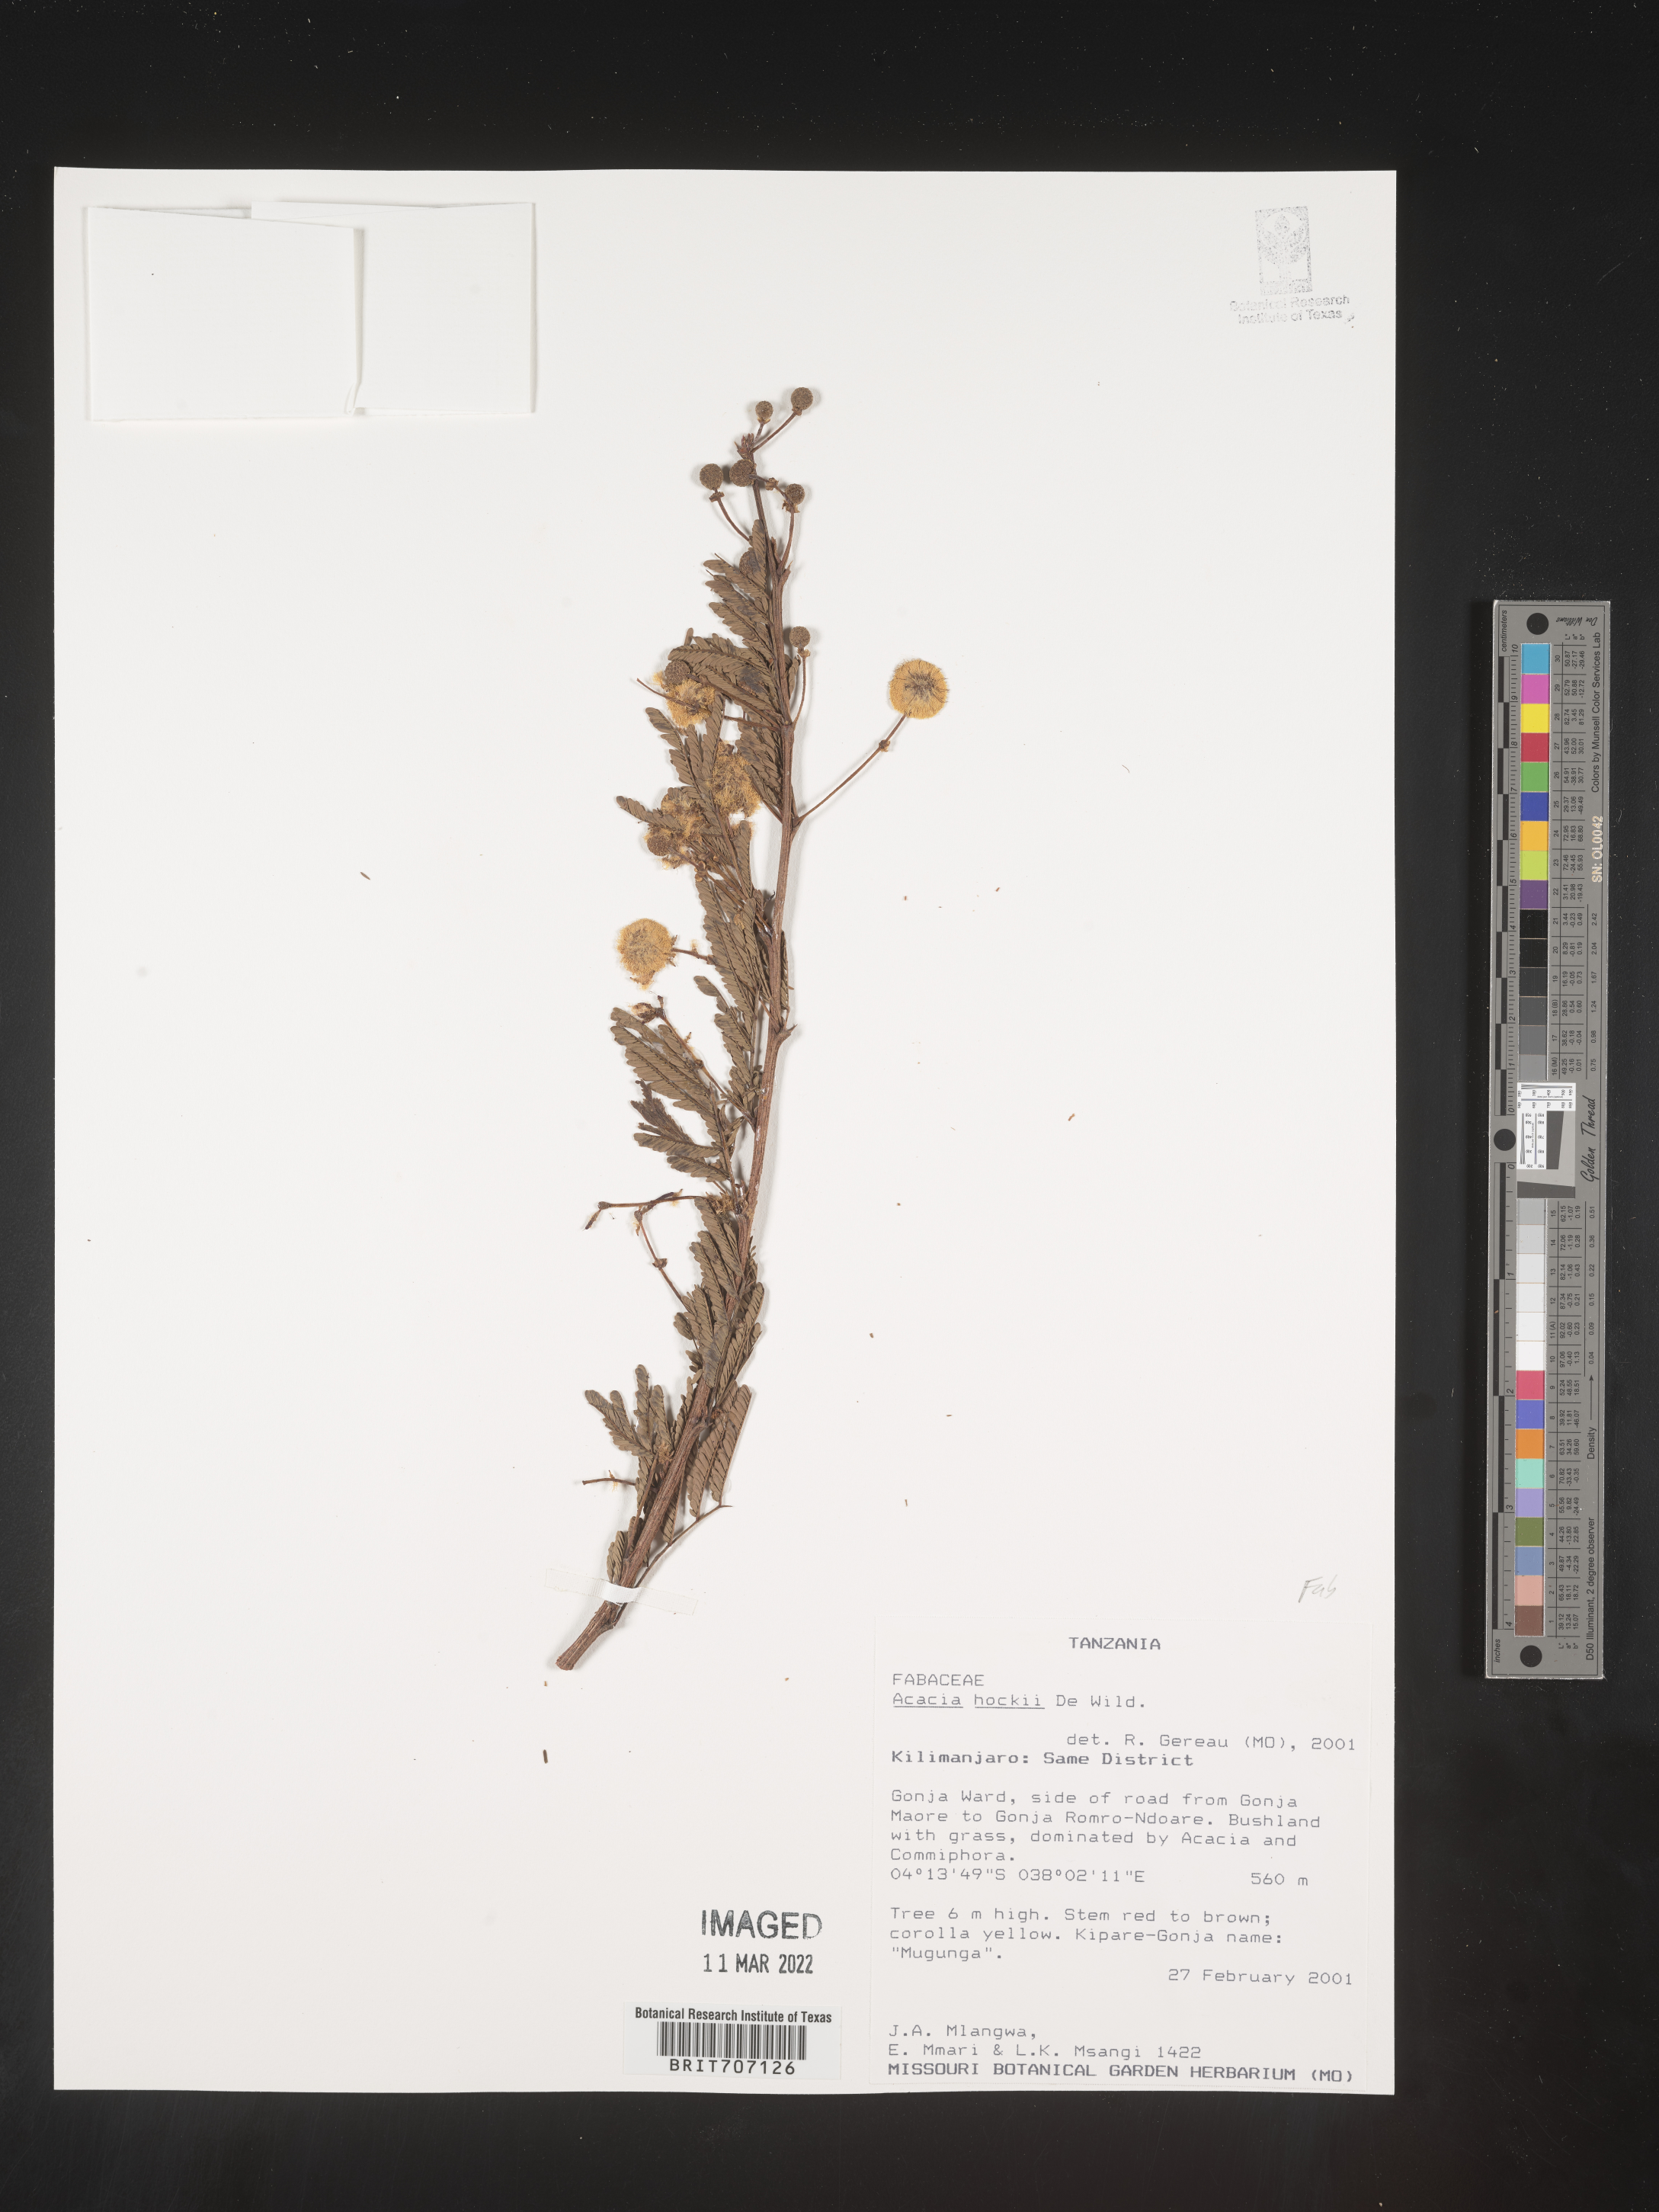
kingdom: Plantae
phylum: Tracheophyta
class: Magnoliopsida
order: Fabales
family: Fabaceae
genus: Acacia
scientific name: Acacia
